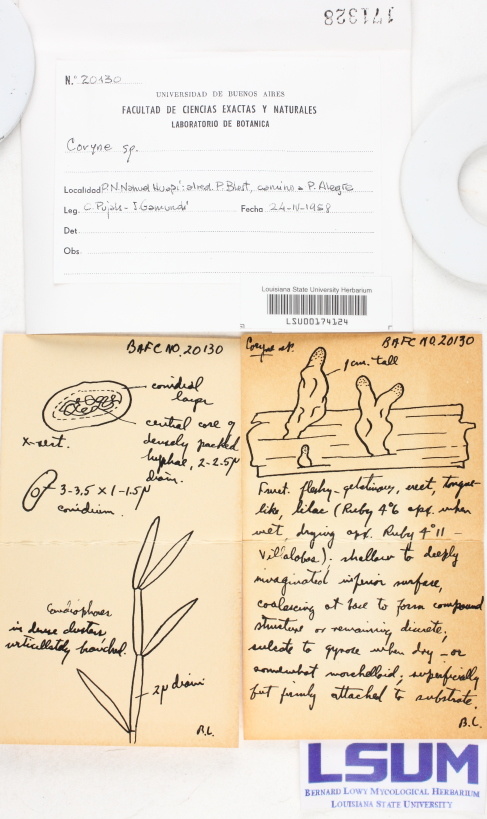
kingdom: Fungi
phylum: Ascomycota
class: Leotiomycetes
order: Helotiales
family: Gelatinodiscaceae
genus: Coryne
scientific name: Coryne
